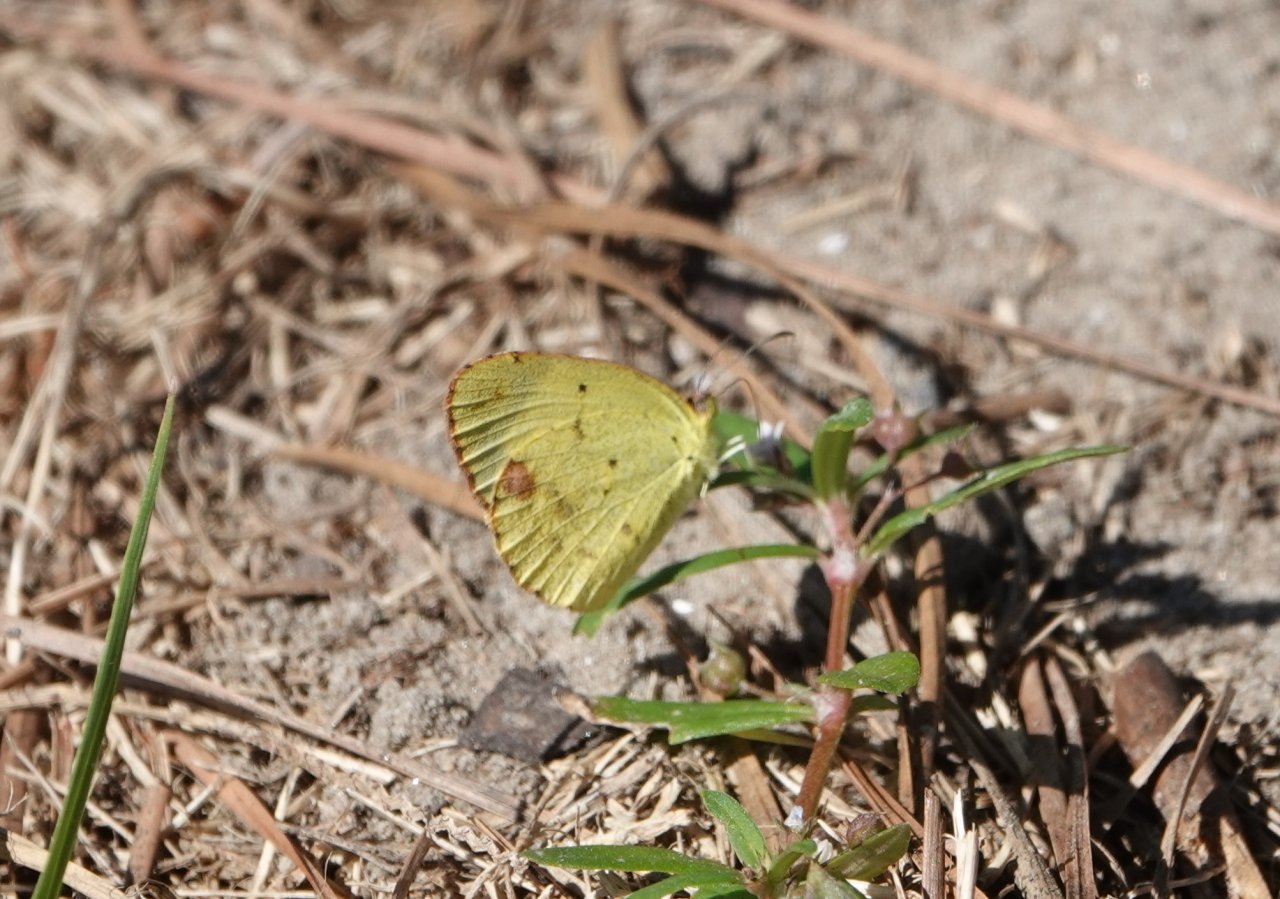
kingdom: Animalia
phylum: Arthropoda
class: Insecta
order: Lepidoptera
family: Pieridae
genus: Pyrisitia
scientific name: Pyrisitia lisa
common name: Little Yellow
